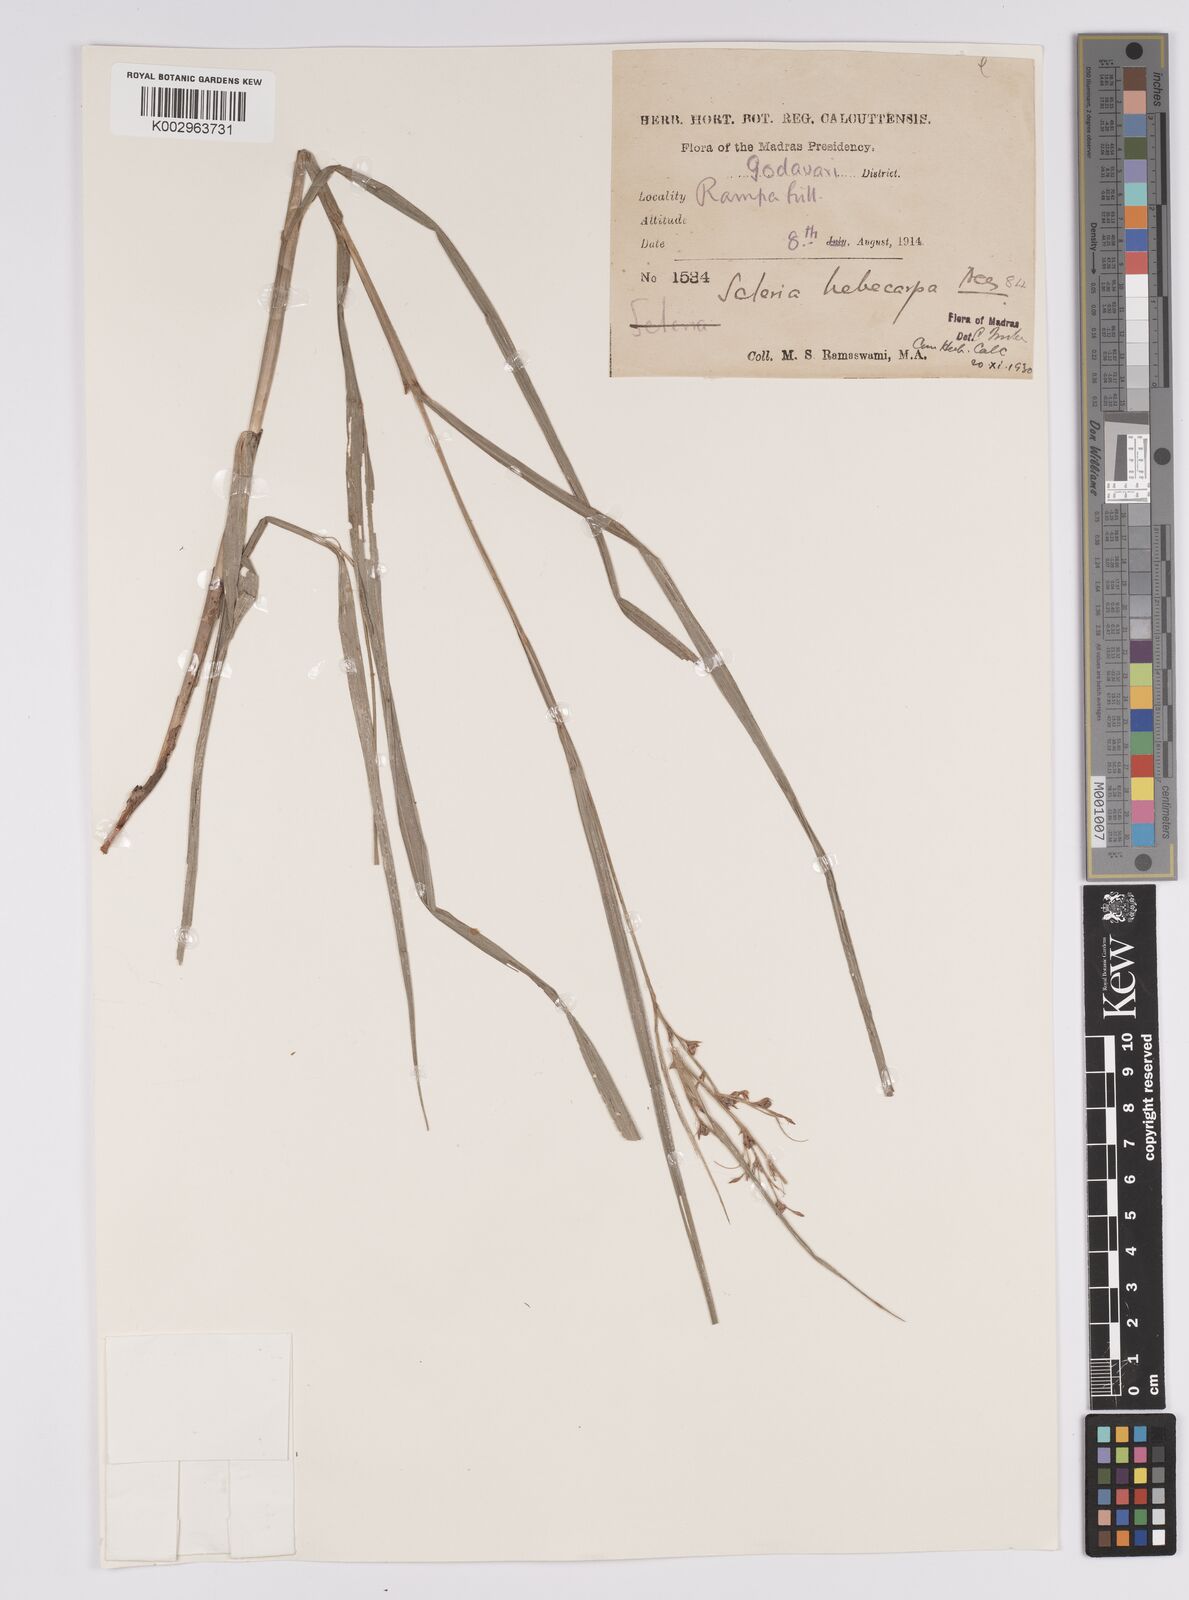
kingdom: Plantae
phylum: Tracheophyta
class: Liliopsida
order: Poales
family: Cyperaceae
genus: Scleria
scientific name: Scleria levis
